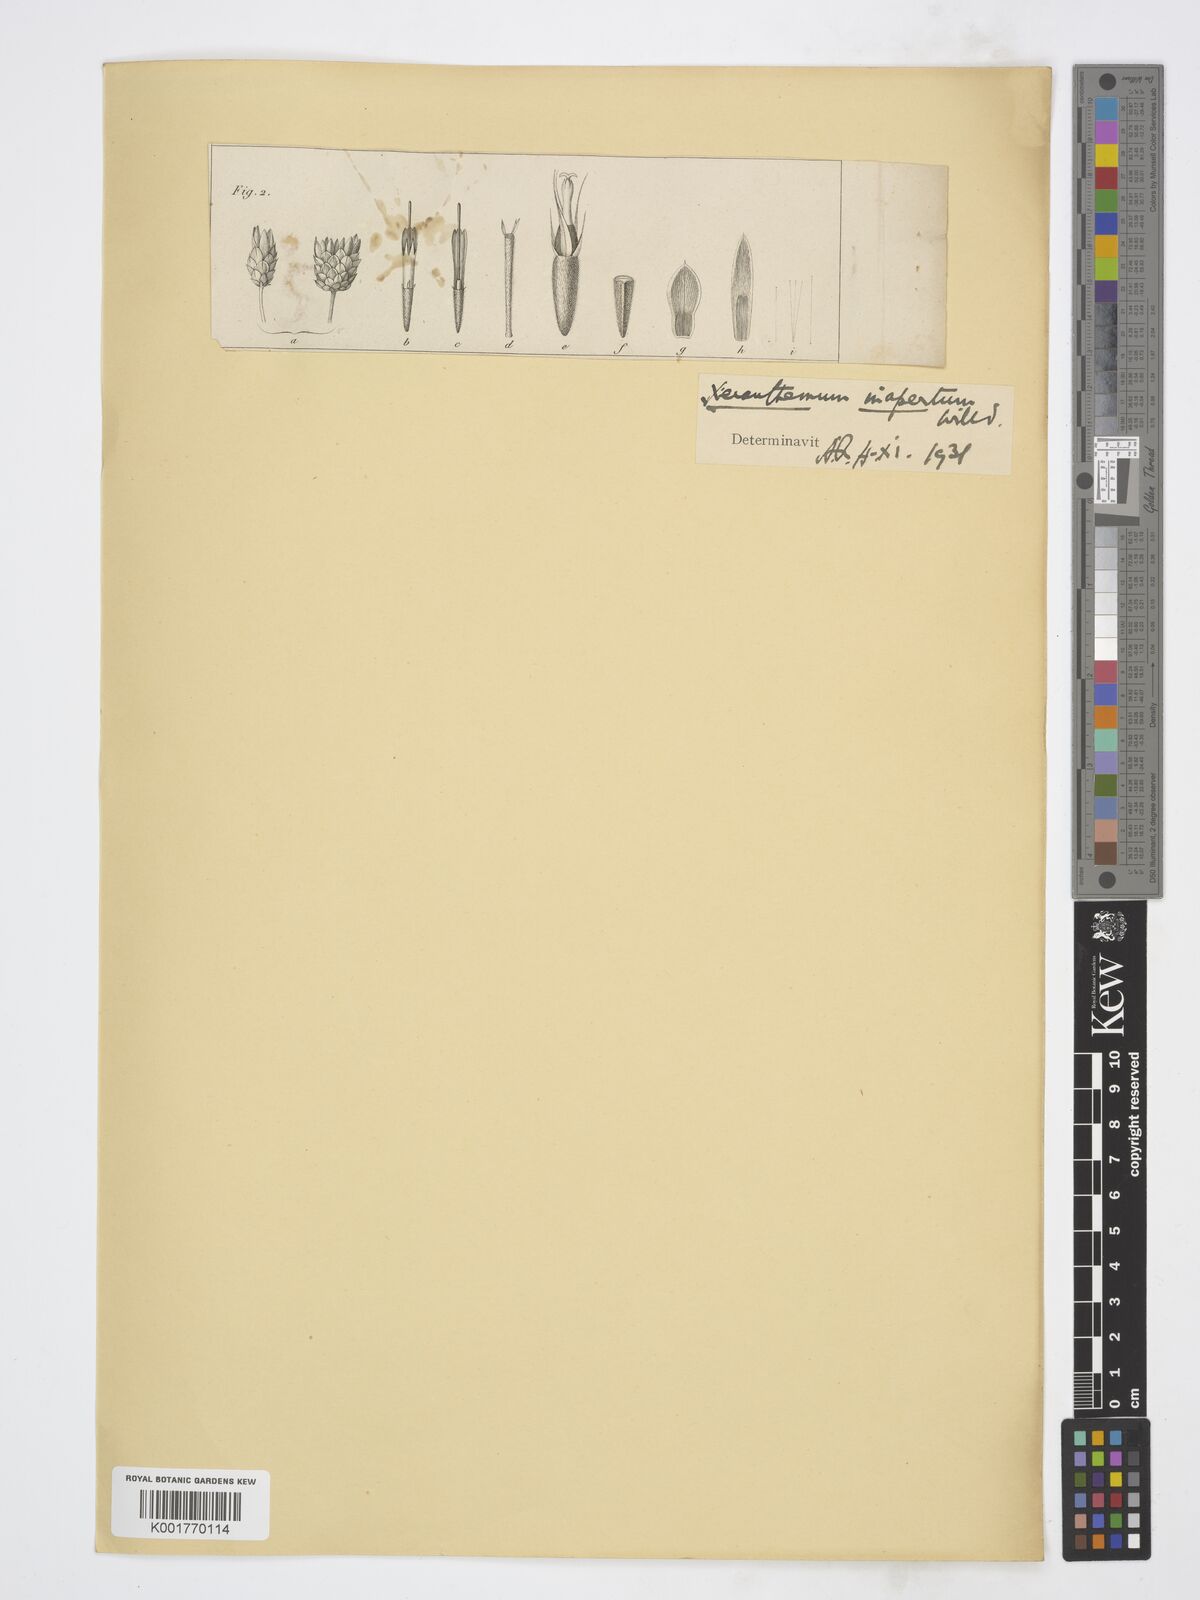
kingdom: Plantae
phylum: Tracheophyta
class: Magnoliopsida
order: Asterales
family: Asteraceae
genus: Xeranthemum
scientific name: Xeranthemum inapertum
